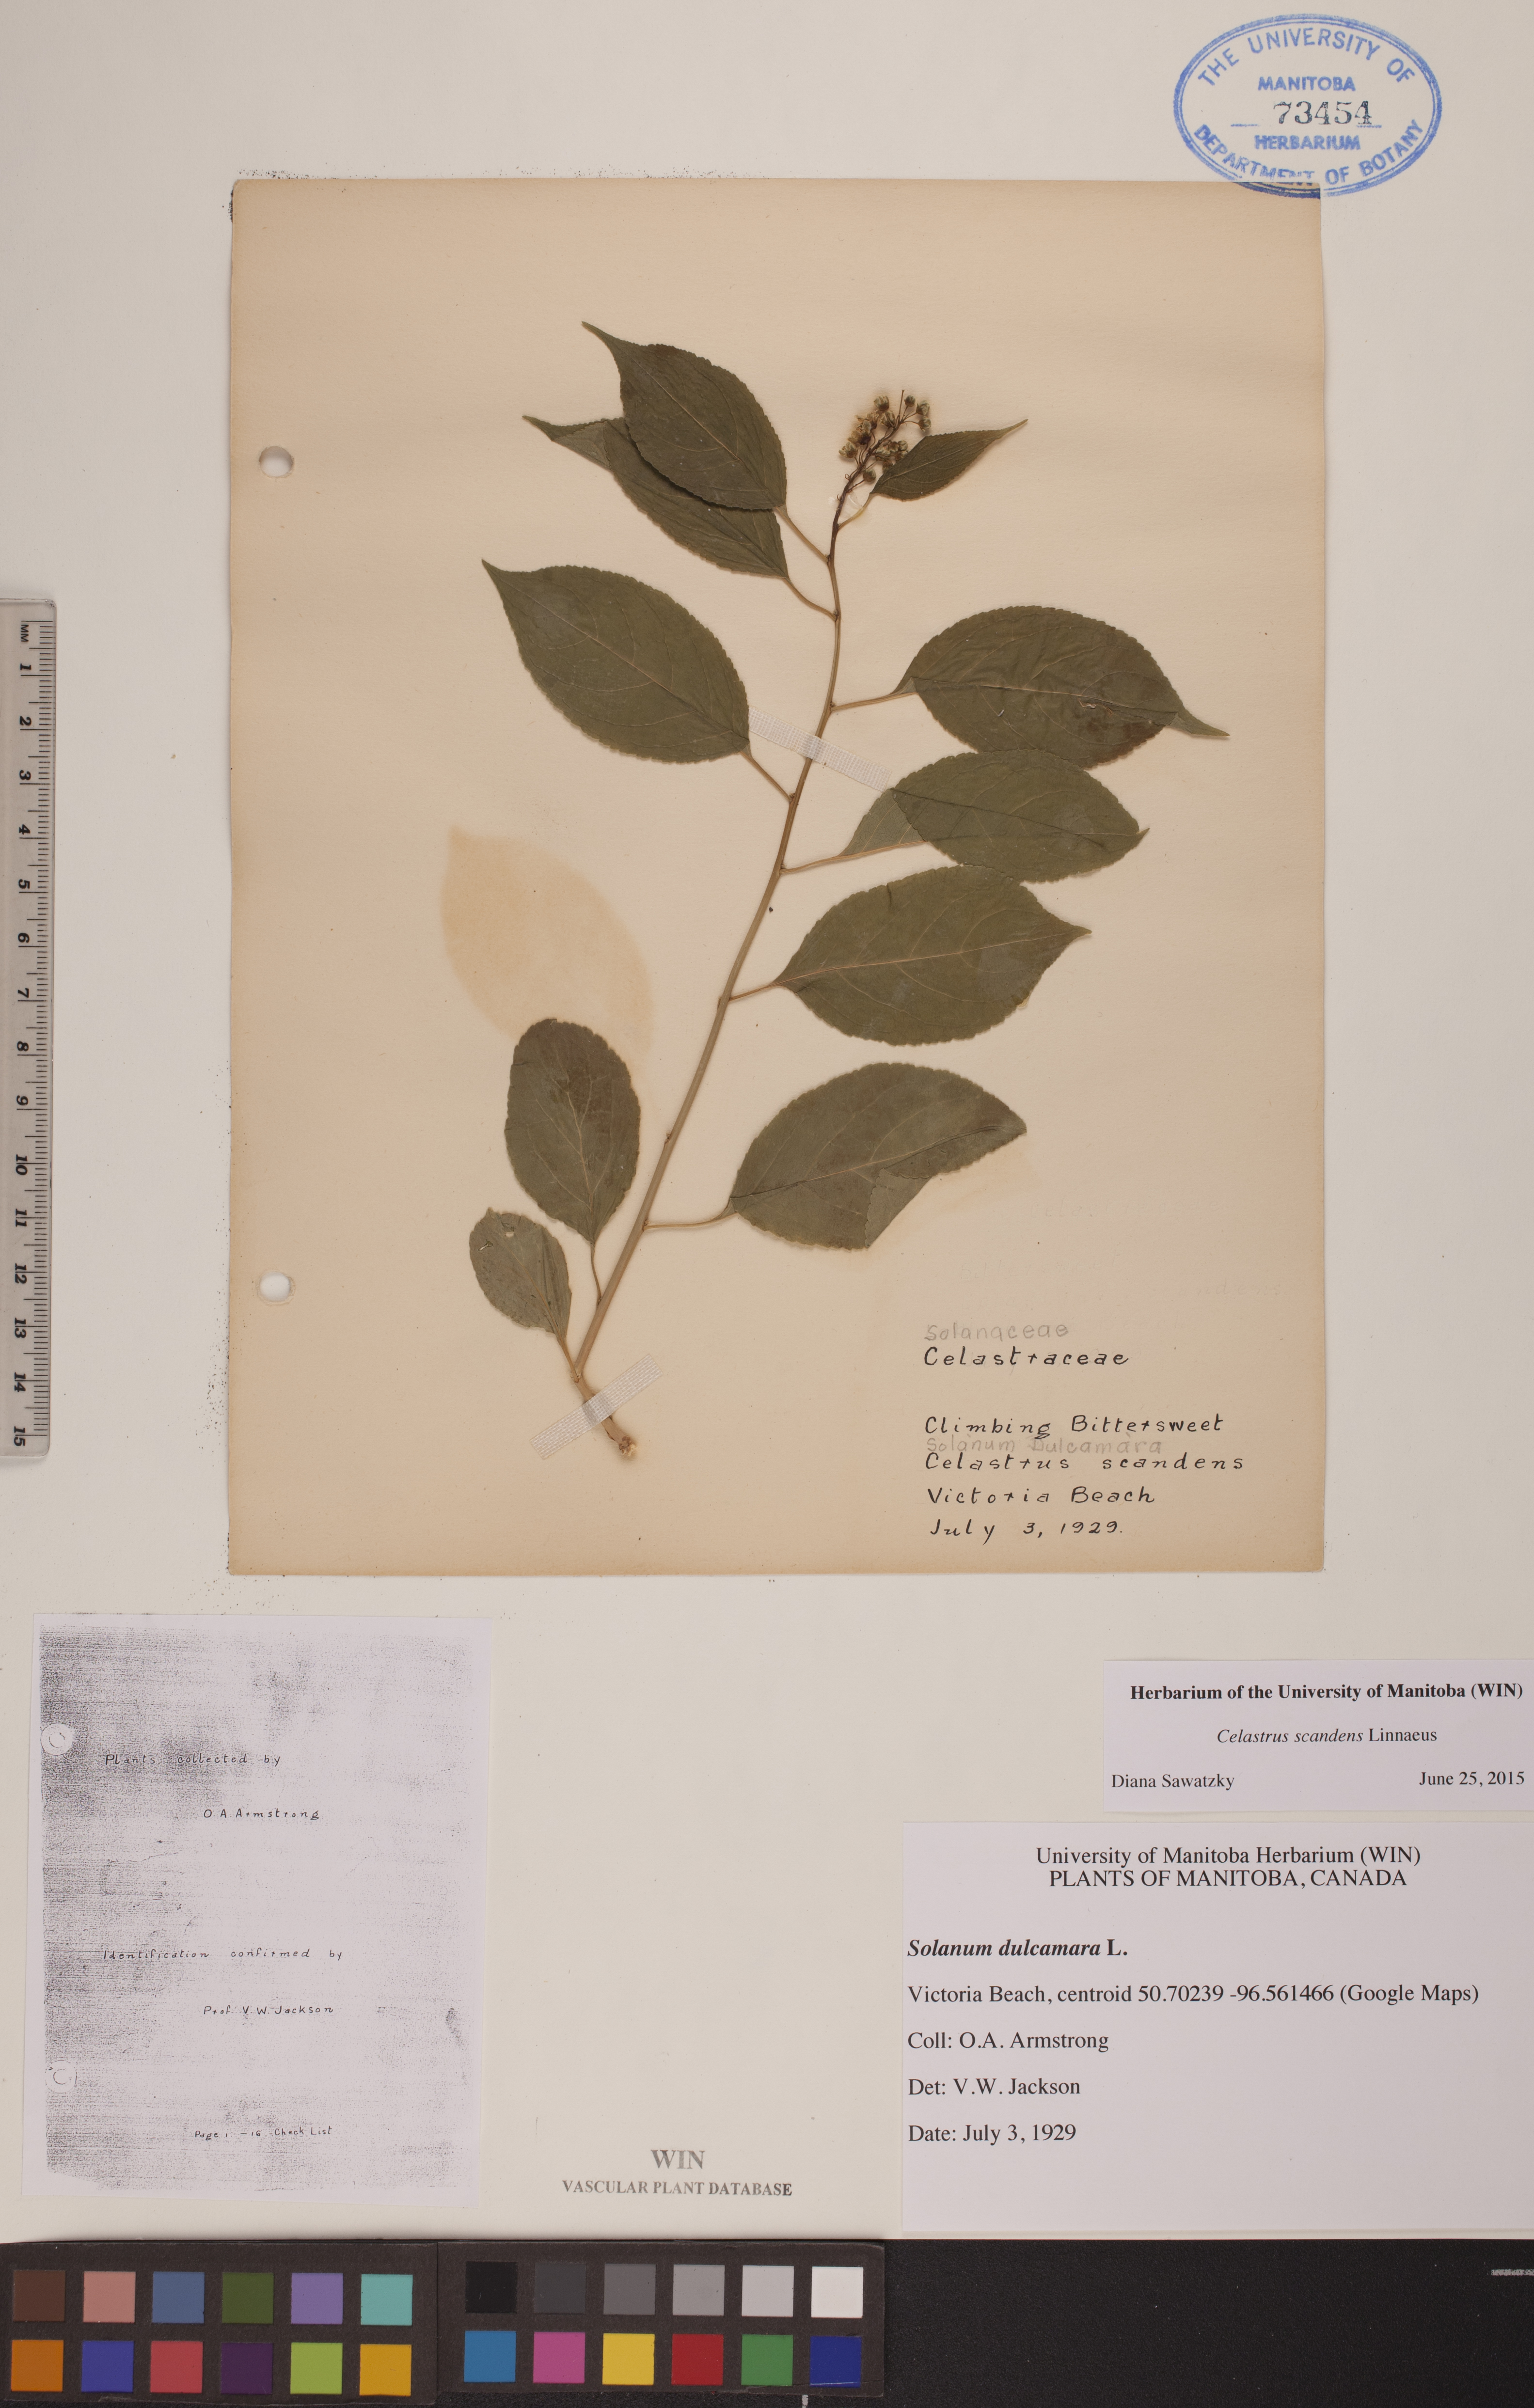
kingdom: Plantae
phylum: Tracheophyta
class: Magnoliopsida
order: Celastrales
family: Celastraceae
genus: Celastrus
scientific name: Celastrus scandens
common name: American bittersweet
